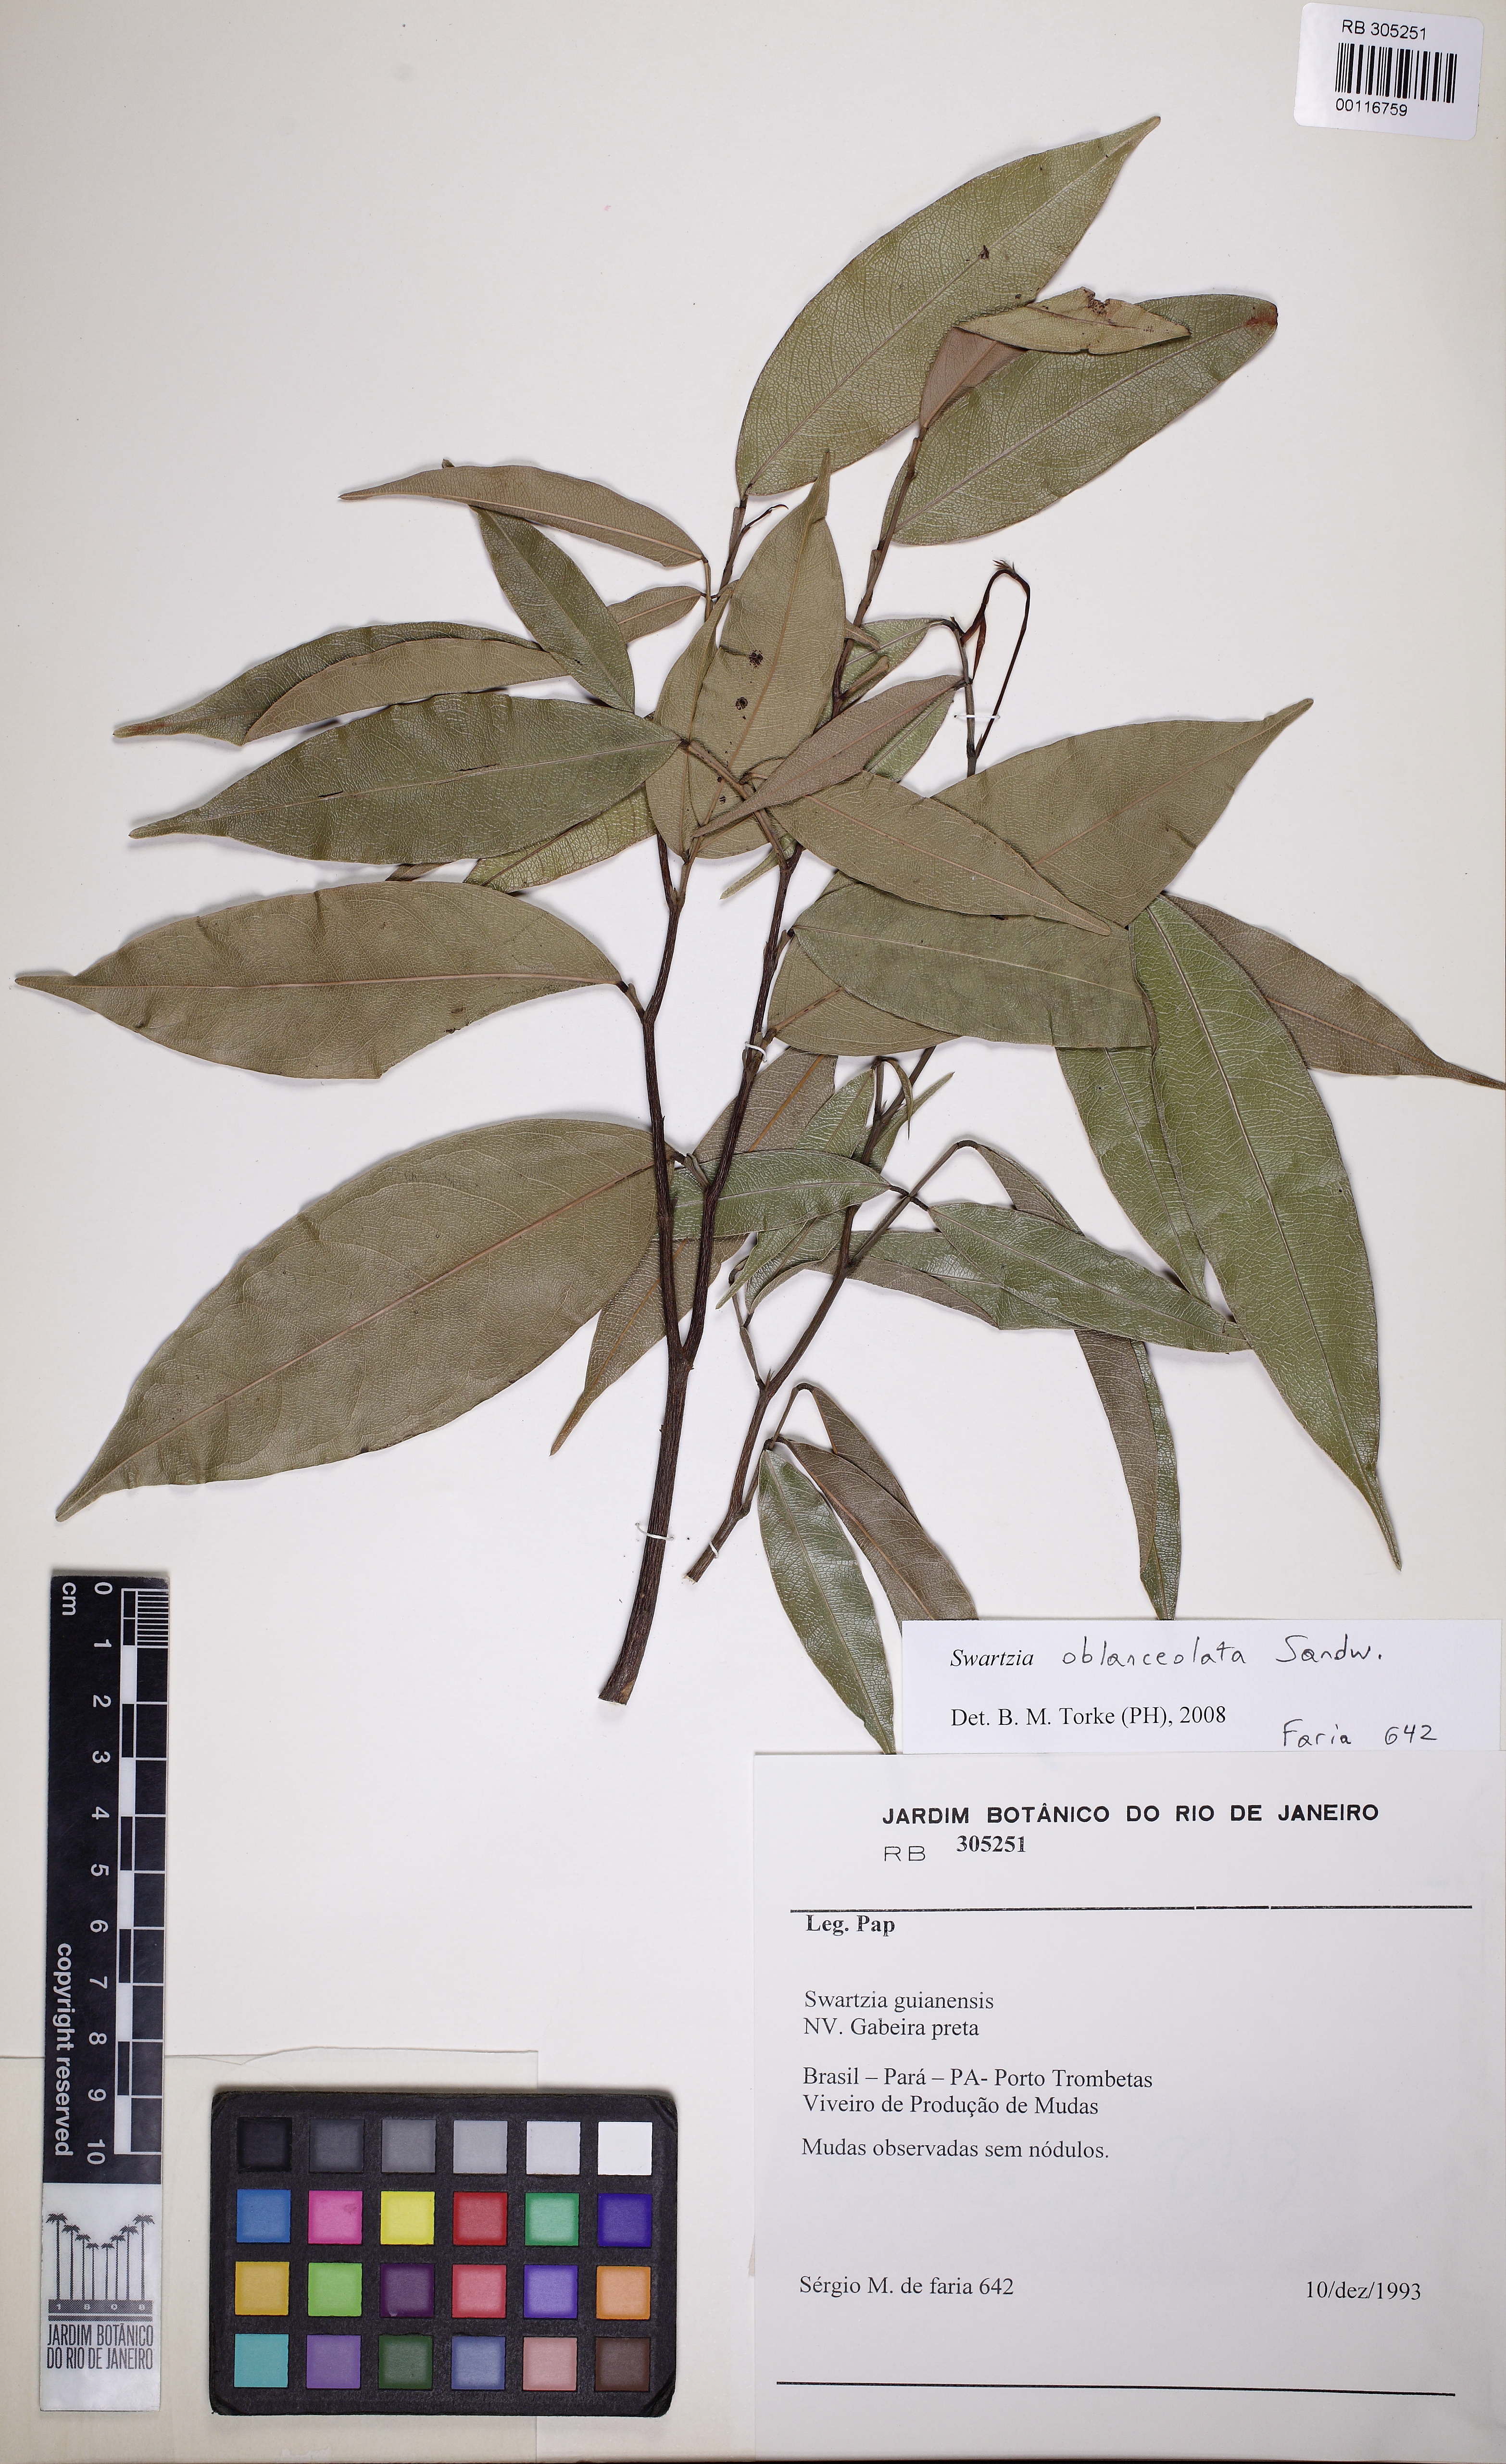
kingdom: Plantae
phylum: Tracheophyta
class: Magnoliopsida
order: Fabales
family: Fabaceae
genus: Swartzia
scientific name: Swartzia oblanceolata
